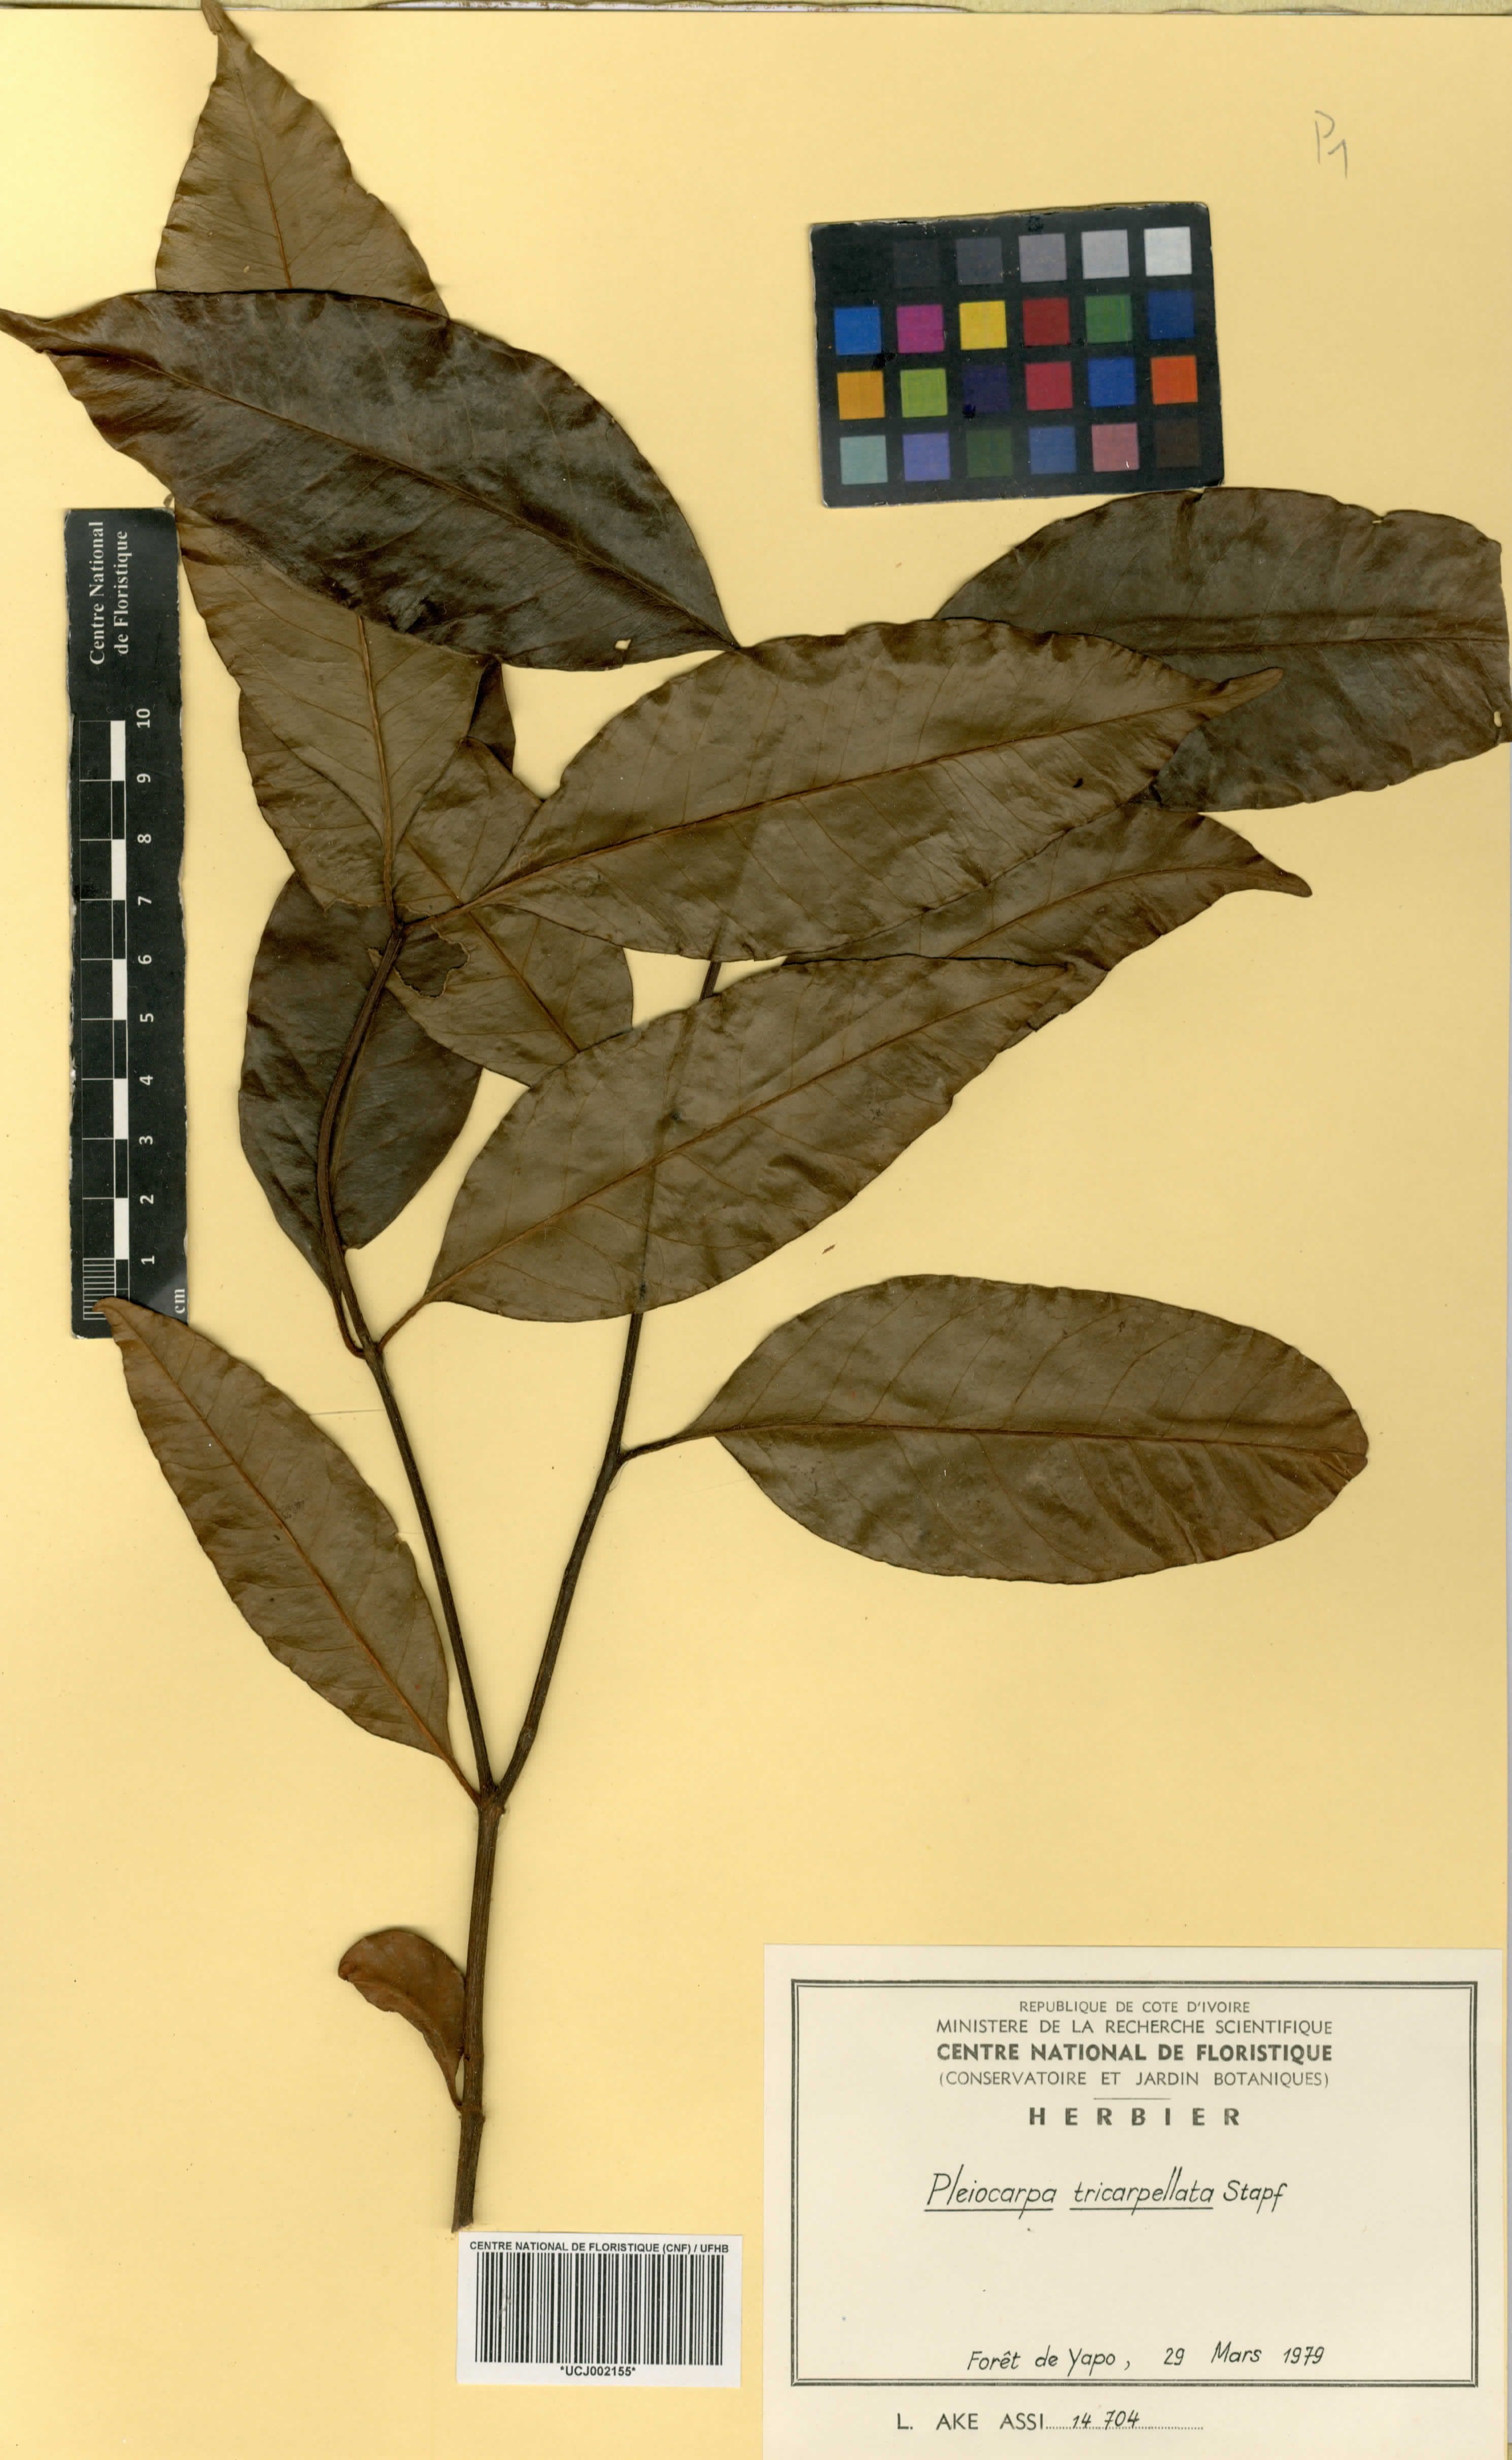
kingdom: Plantae
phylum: Tracheophyta
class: Magnoliopsida
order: Gentianales
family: Apocynaceae
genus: Pleiocarpa
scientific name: Pleiocarpa mutica
